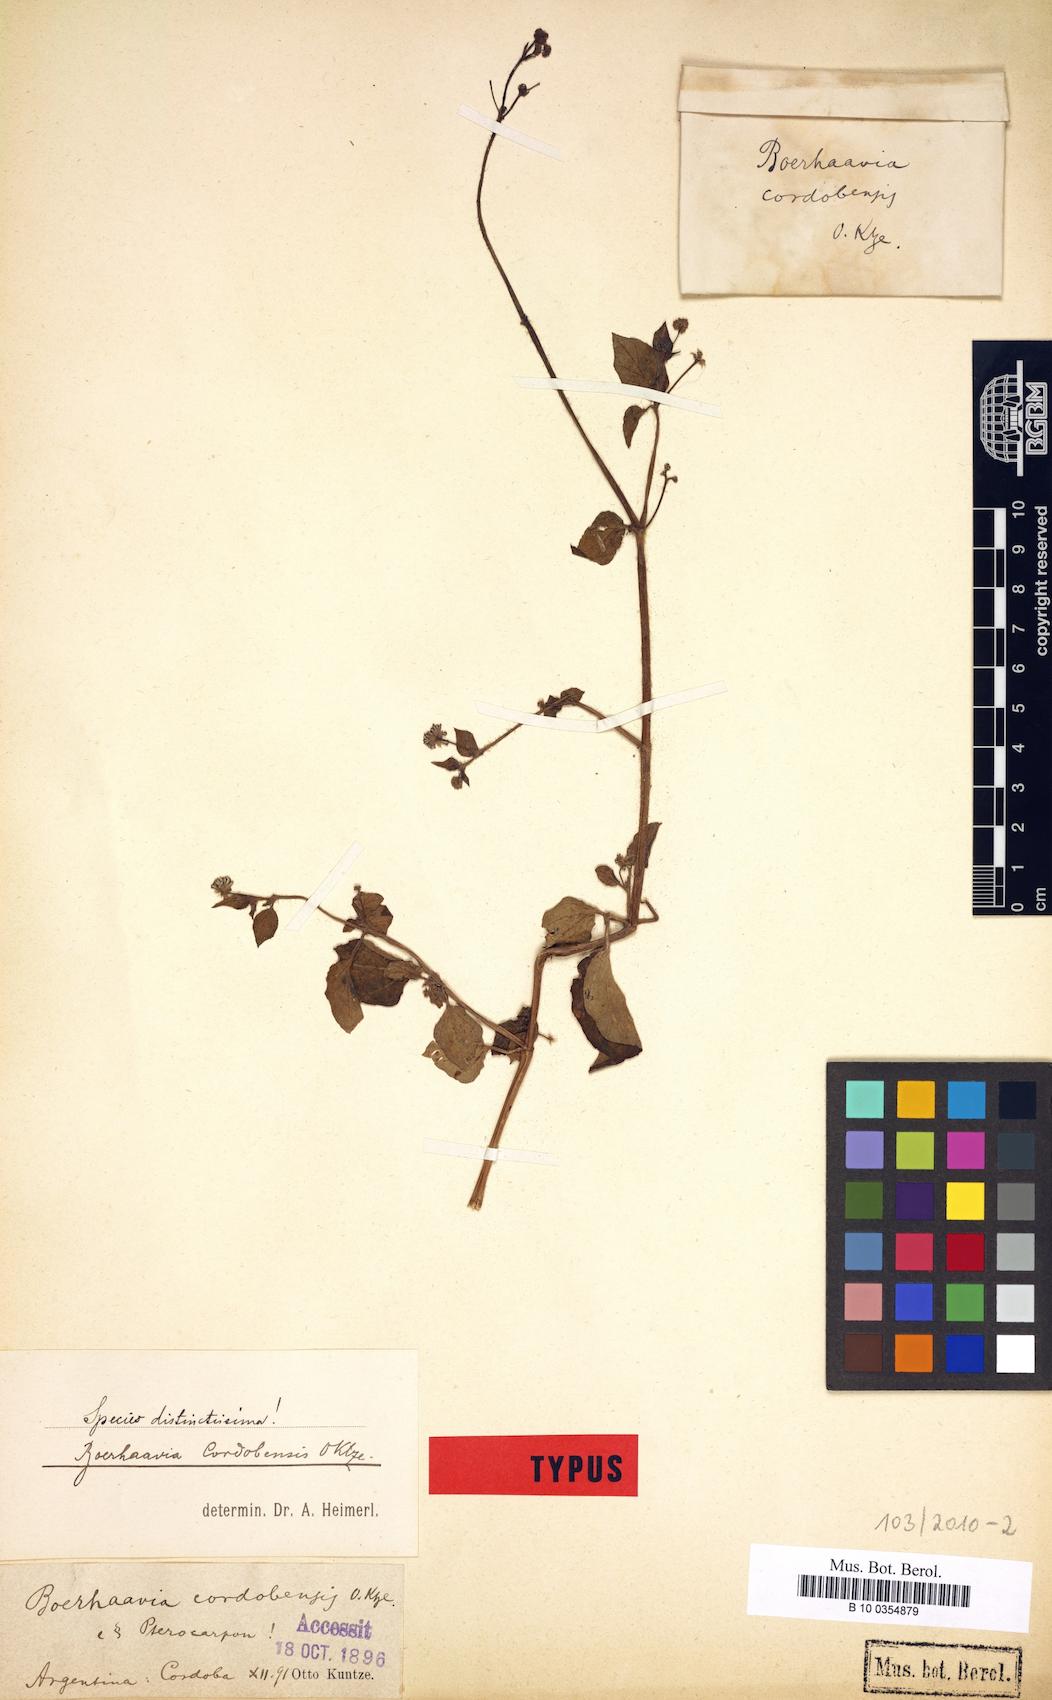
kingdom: Plantae
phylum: Tracheophyta
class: Magnoliopsida
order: Caryophyllales
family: Nyctaginaceae
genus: Boerhavia
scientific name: Boerhavia cordobensis
